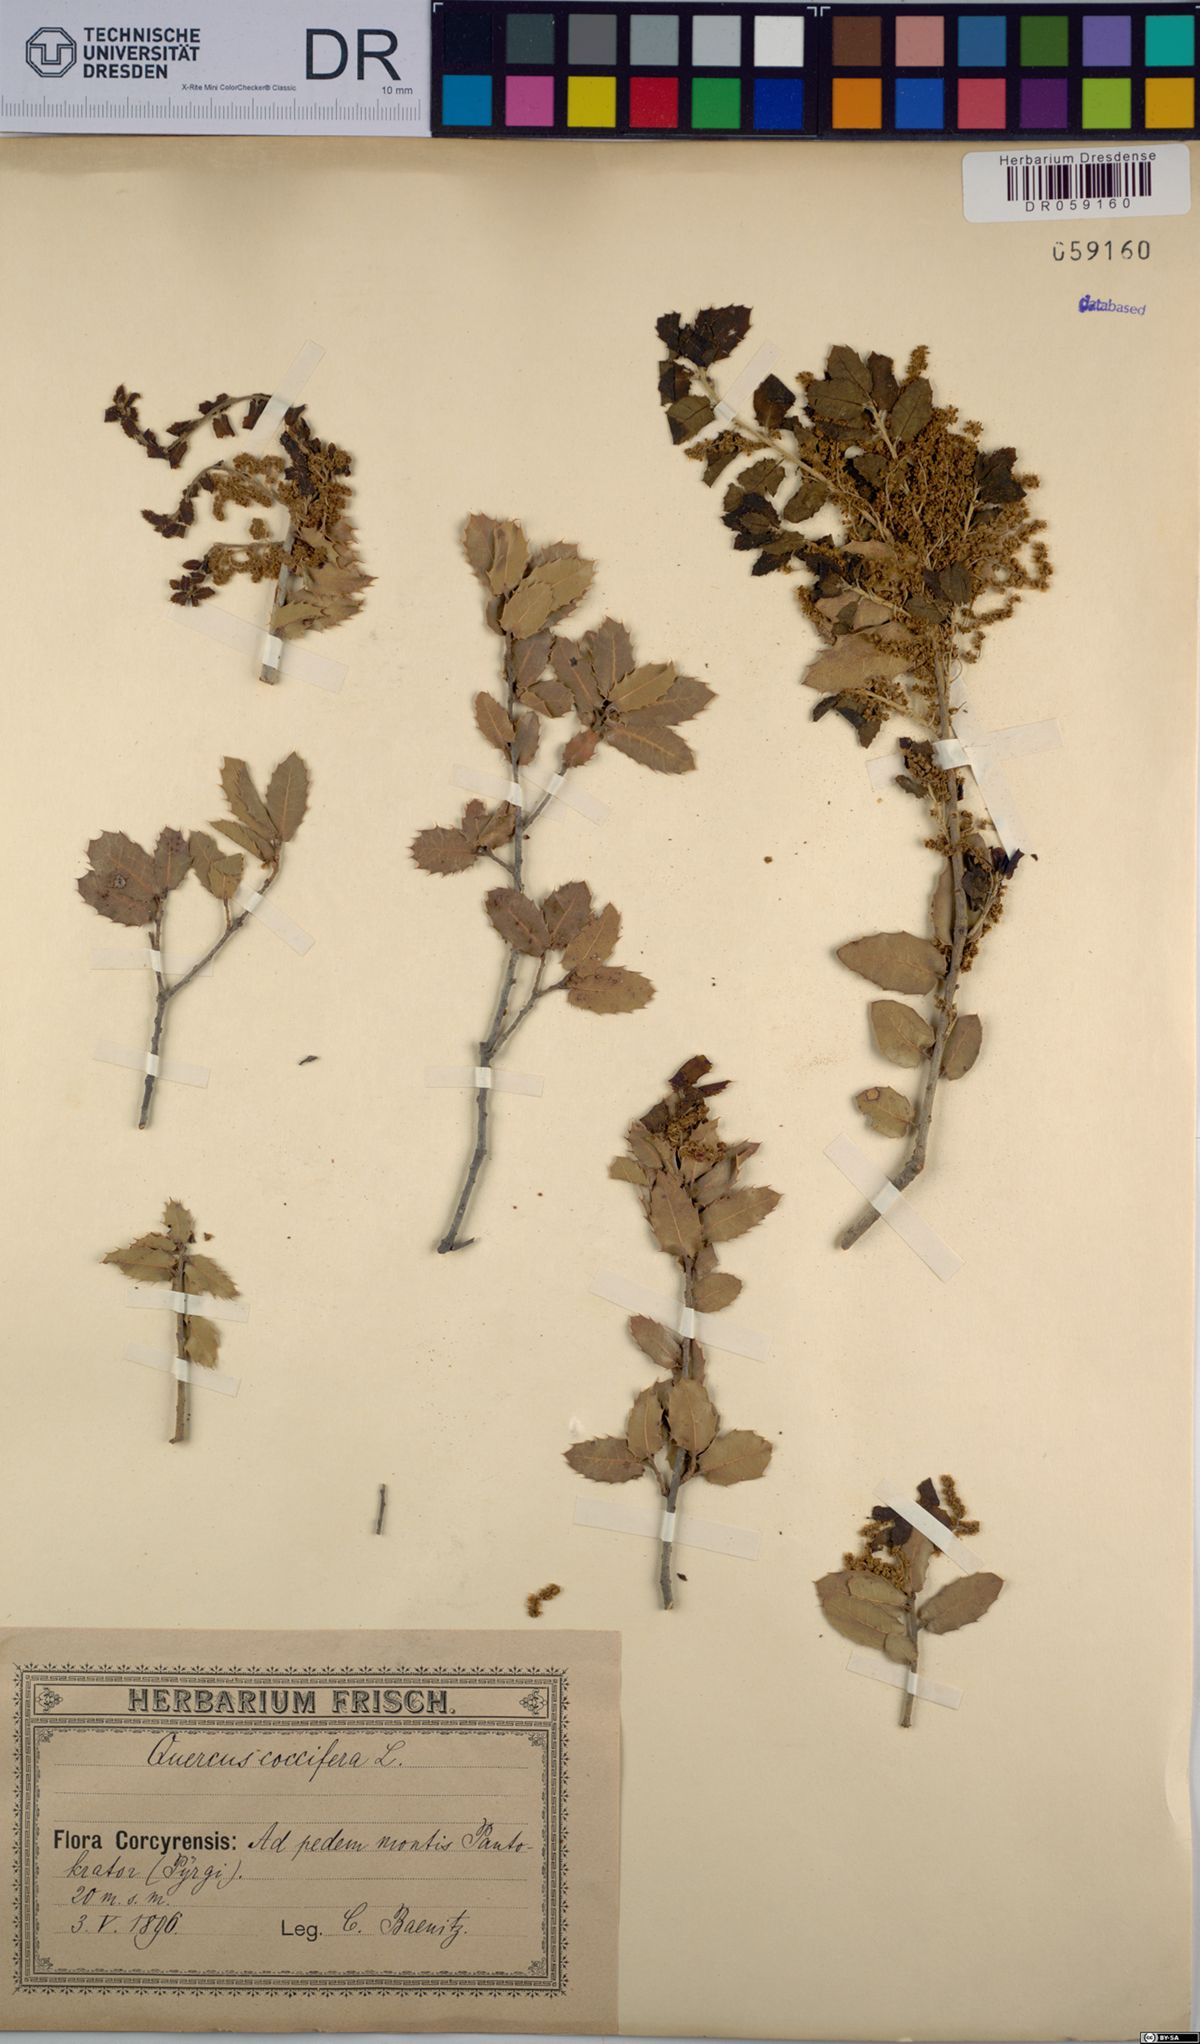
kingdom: Plantae
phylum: Tracheophyta
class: Magnoliopsida
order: Fagales
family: Fagaceae
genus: Quercus
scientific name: Quercus coccifera
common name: Kermes oak
